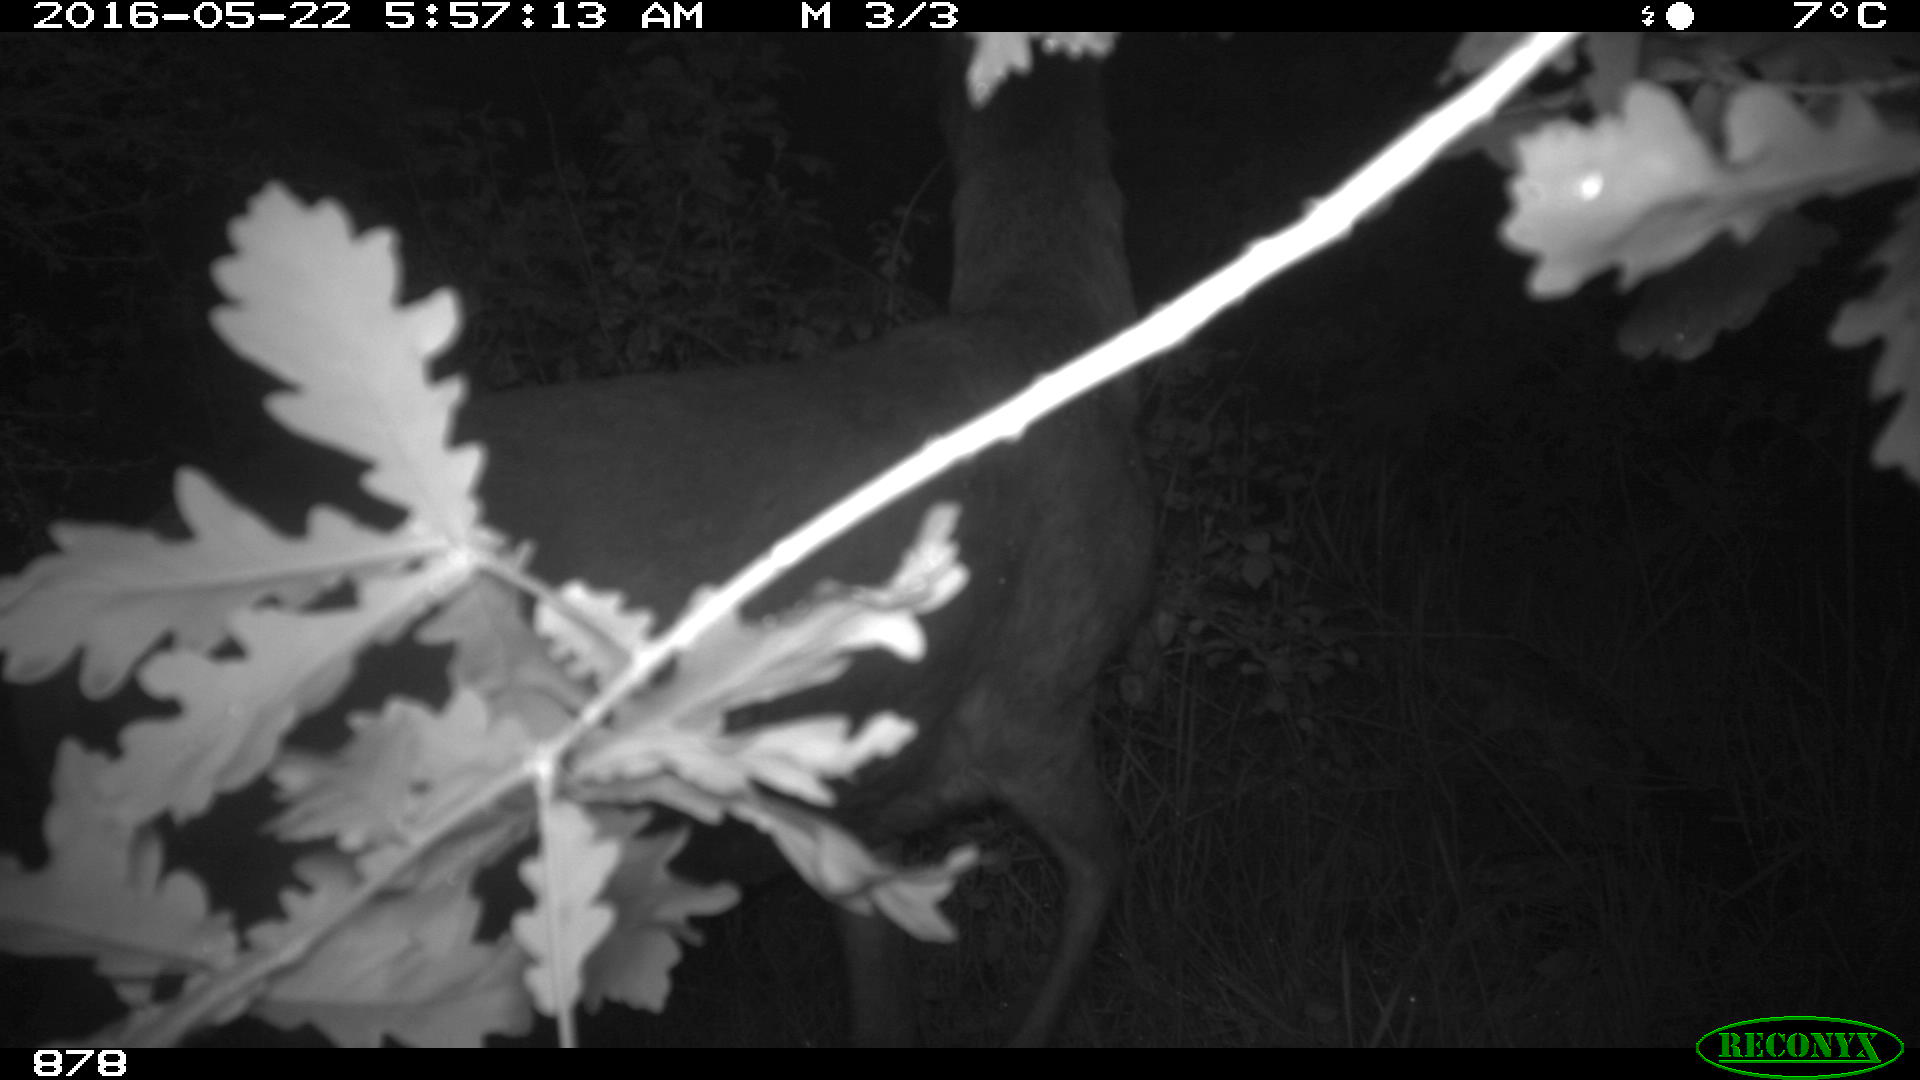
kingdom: Animalia
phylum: Chordata
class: Mammalia
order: Artiodactyla
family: Cervidae
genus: Capreolus
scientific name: Capreolus capreolus
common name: Western roe deer
